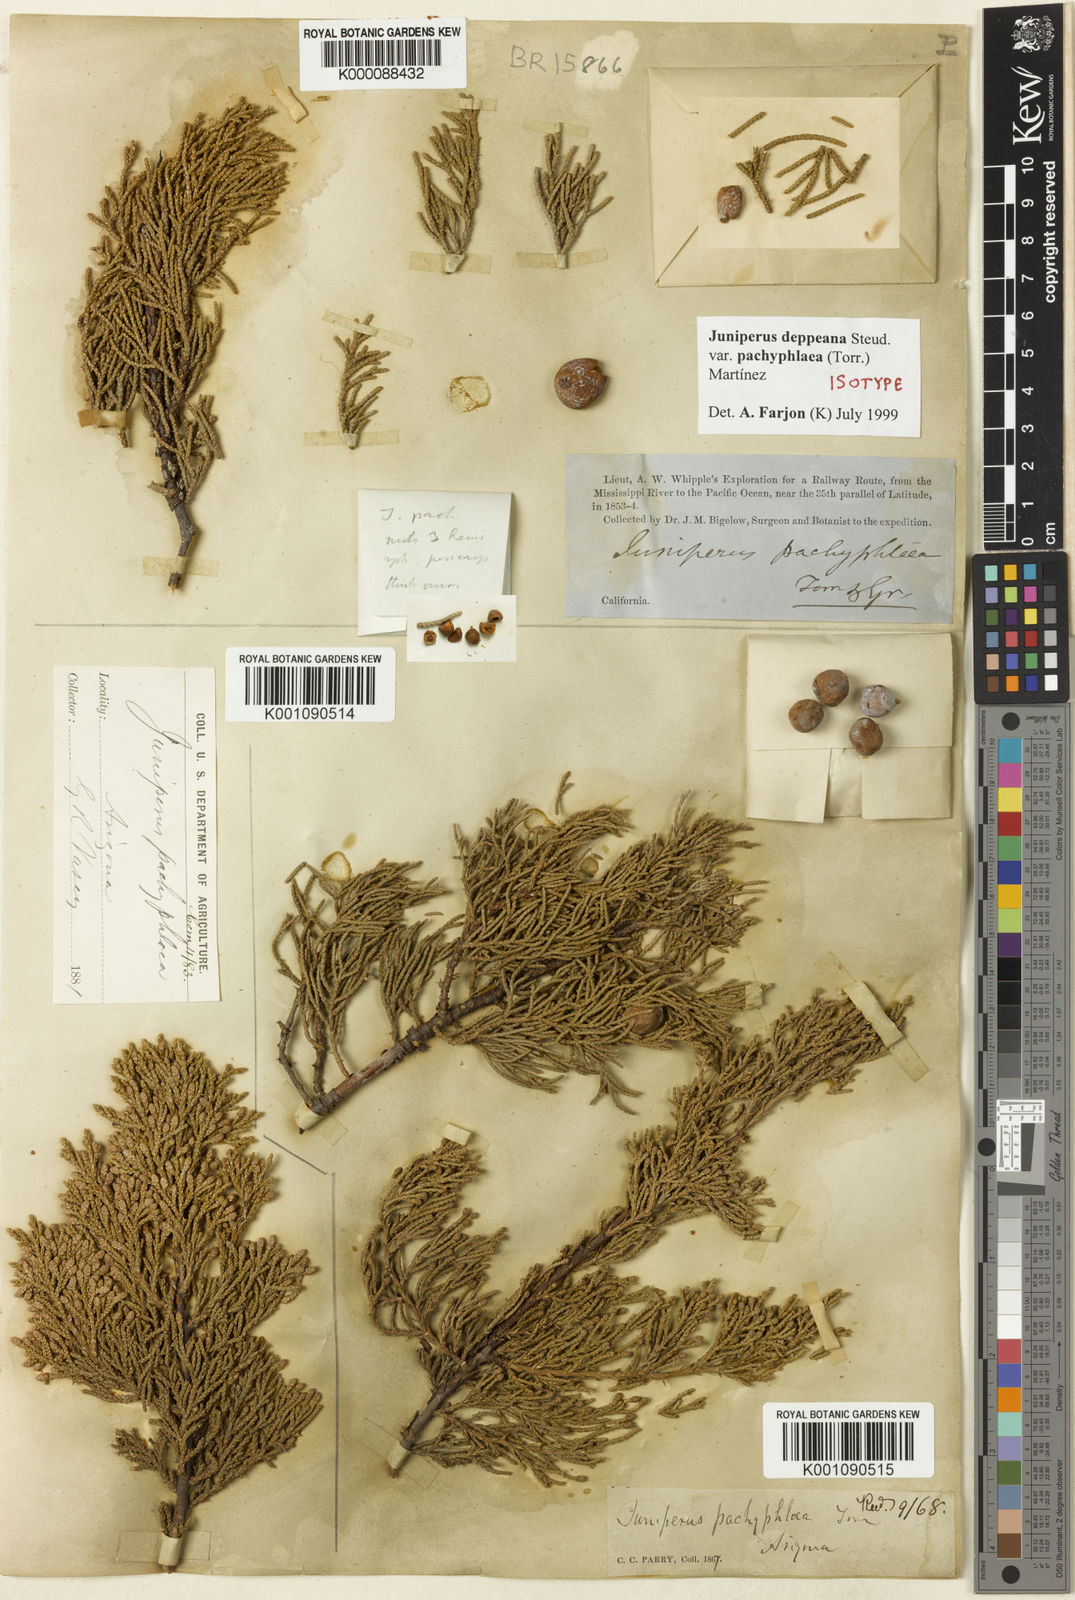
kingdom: Plantae
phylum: Tracheophyta
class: Pinopsida
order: Pinales
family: Cupressaceae
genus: Juniperus
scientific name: Juniperus deppeana
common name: Alligator juniper
